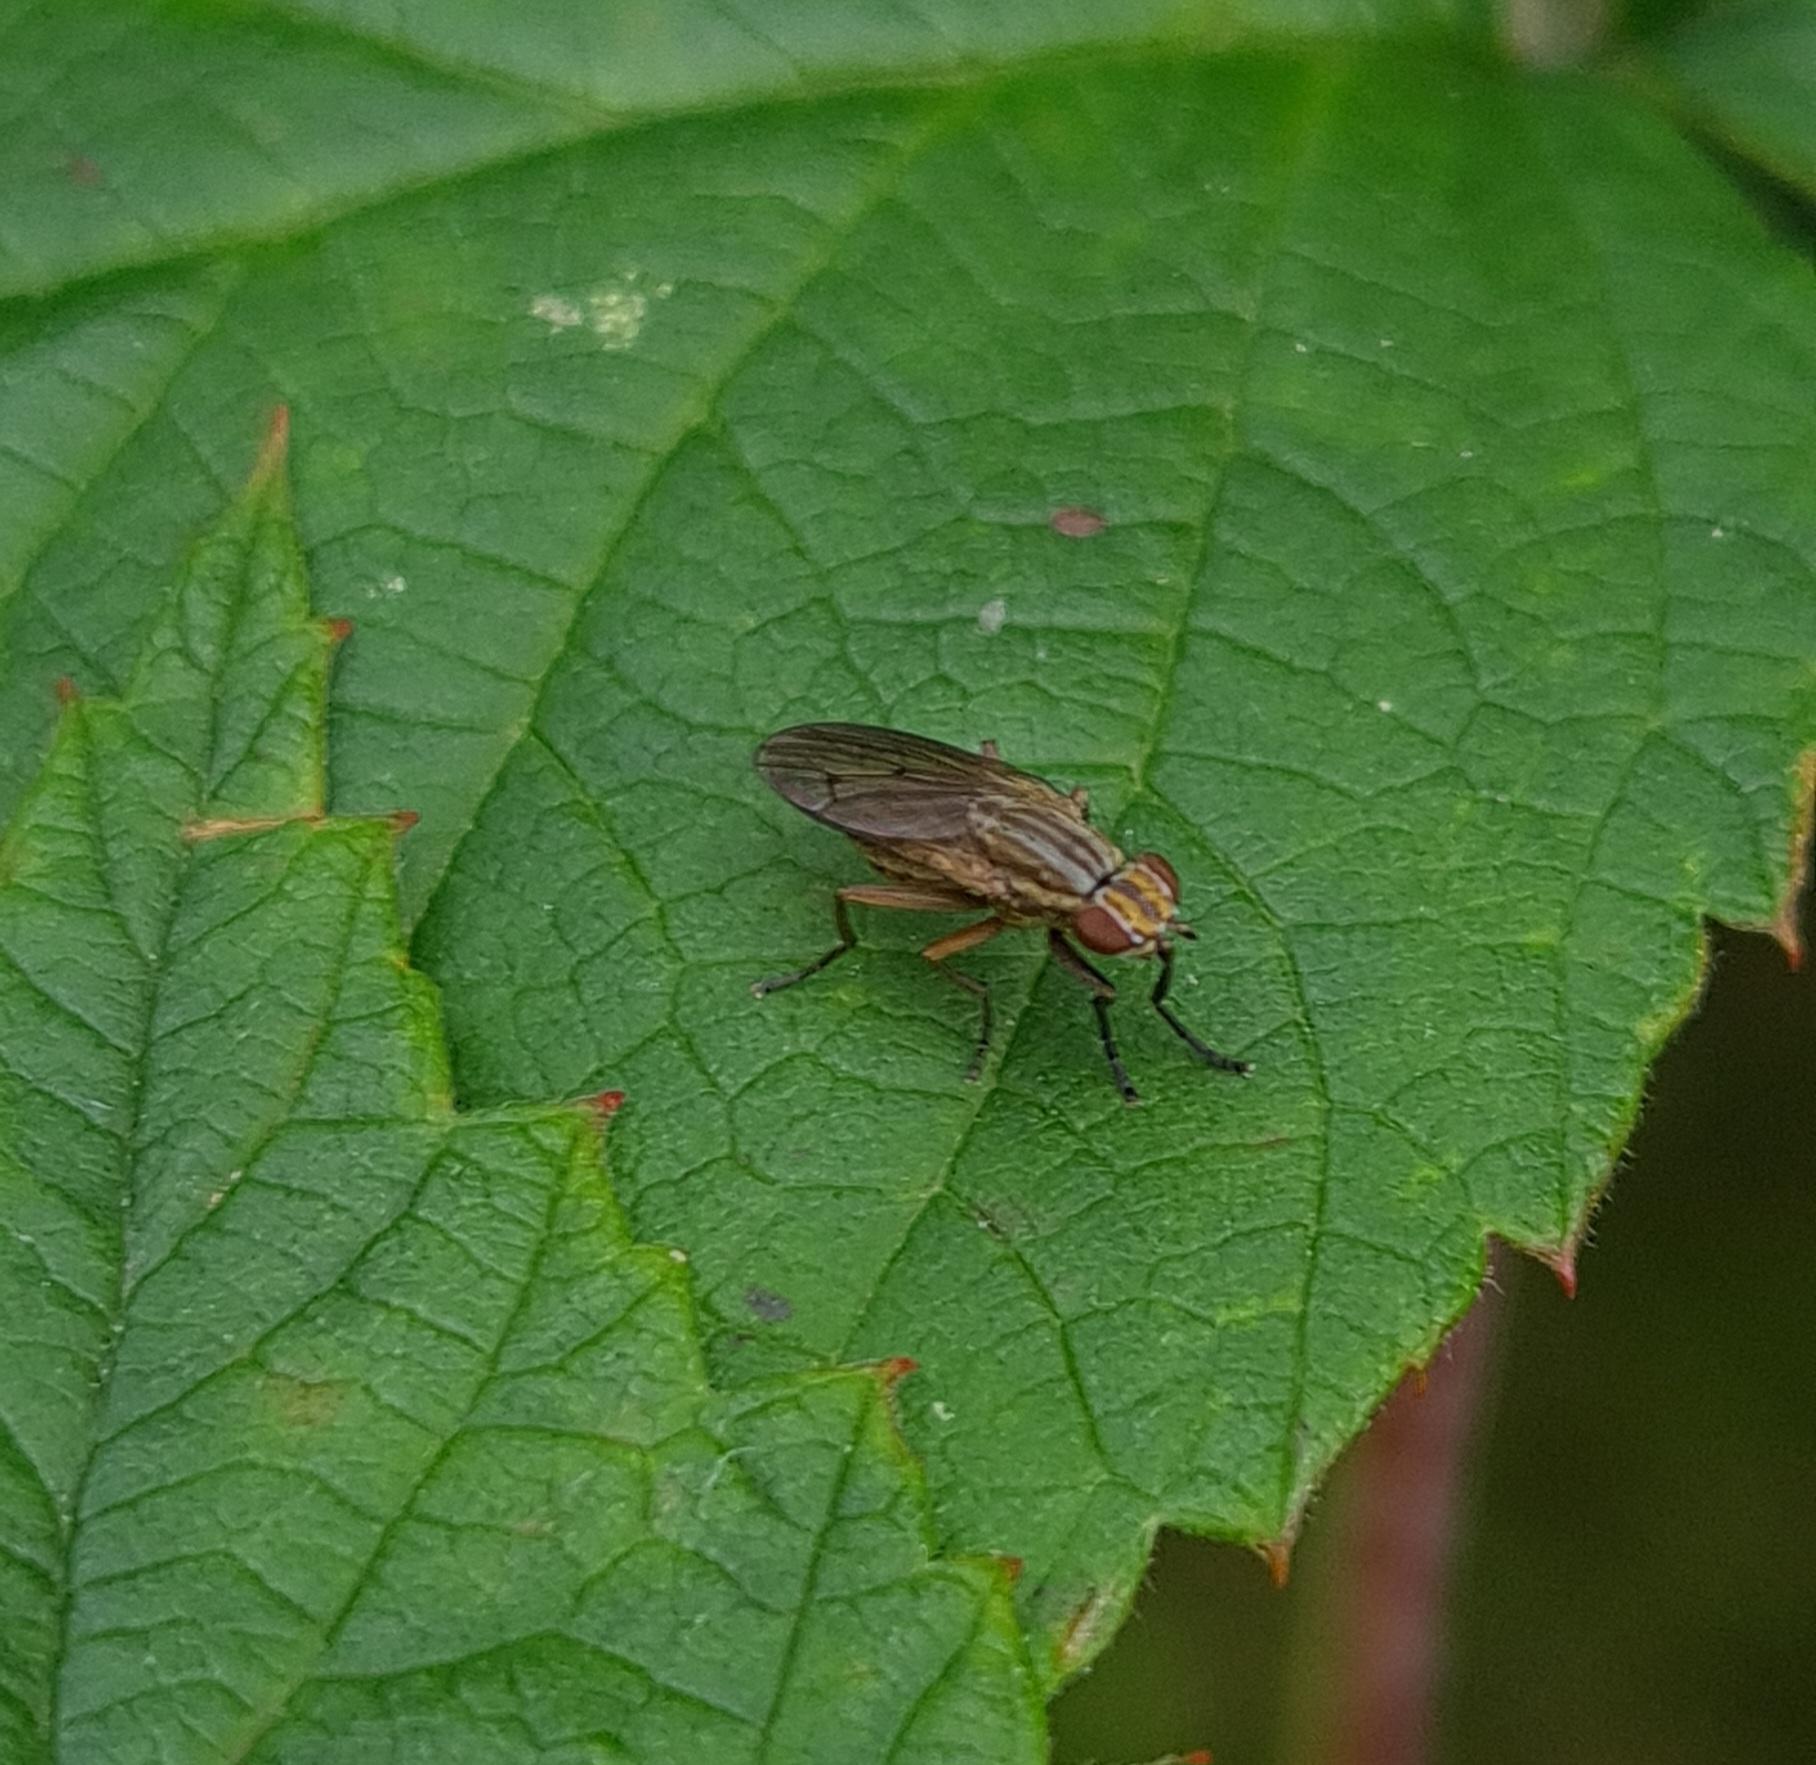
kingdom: Animalia
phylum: Arthropoda
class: Insecta
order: Diptera
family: Sciomyzidae
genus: Pherbellia
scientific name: Pherbellia cinerella
